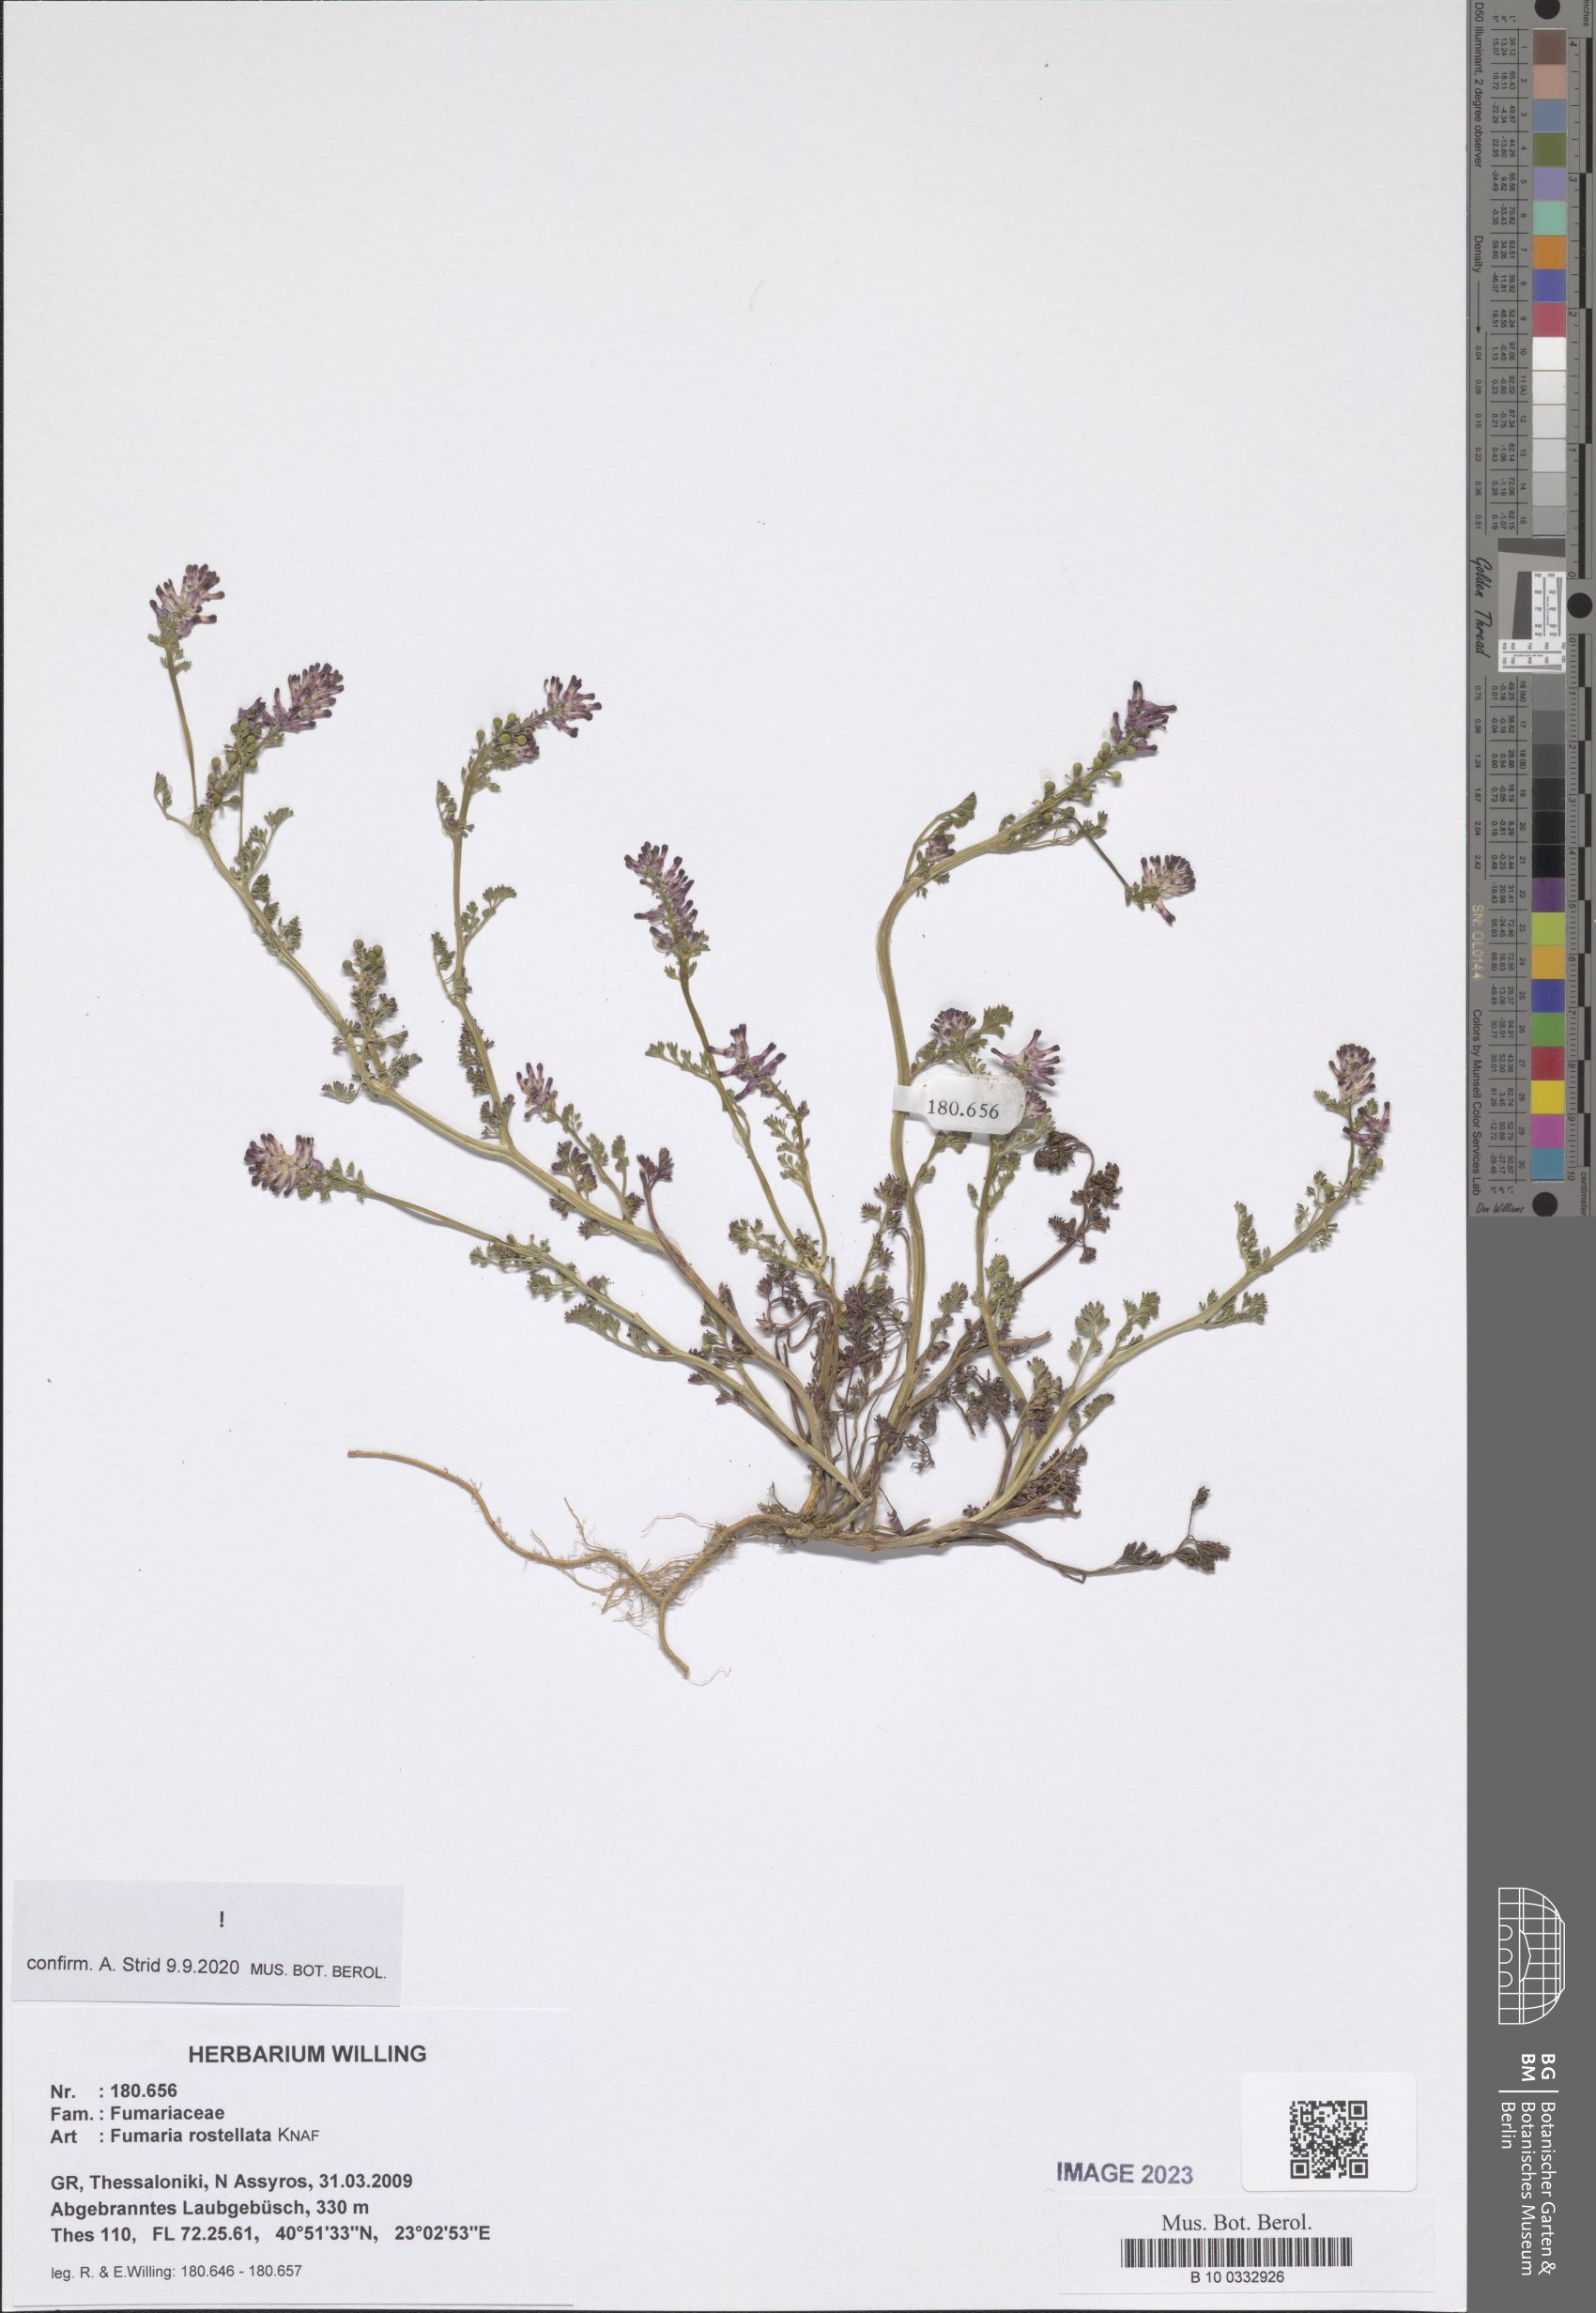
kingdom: Plantae
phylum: Tracheophyta
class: Magnoliopsida
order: Ranunculales
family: Papaveraceae
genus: Fumaria
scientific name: Fumaria rostellata
